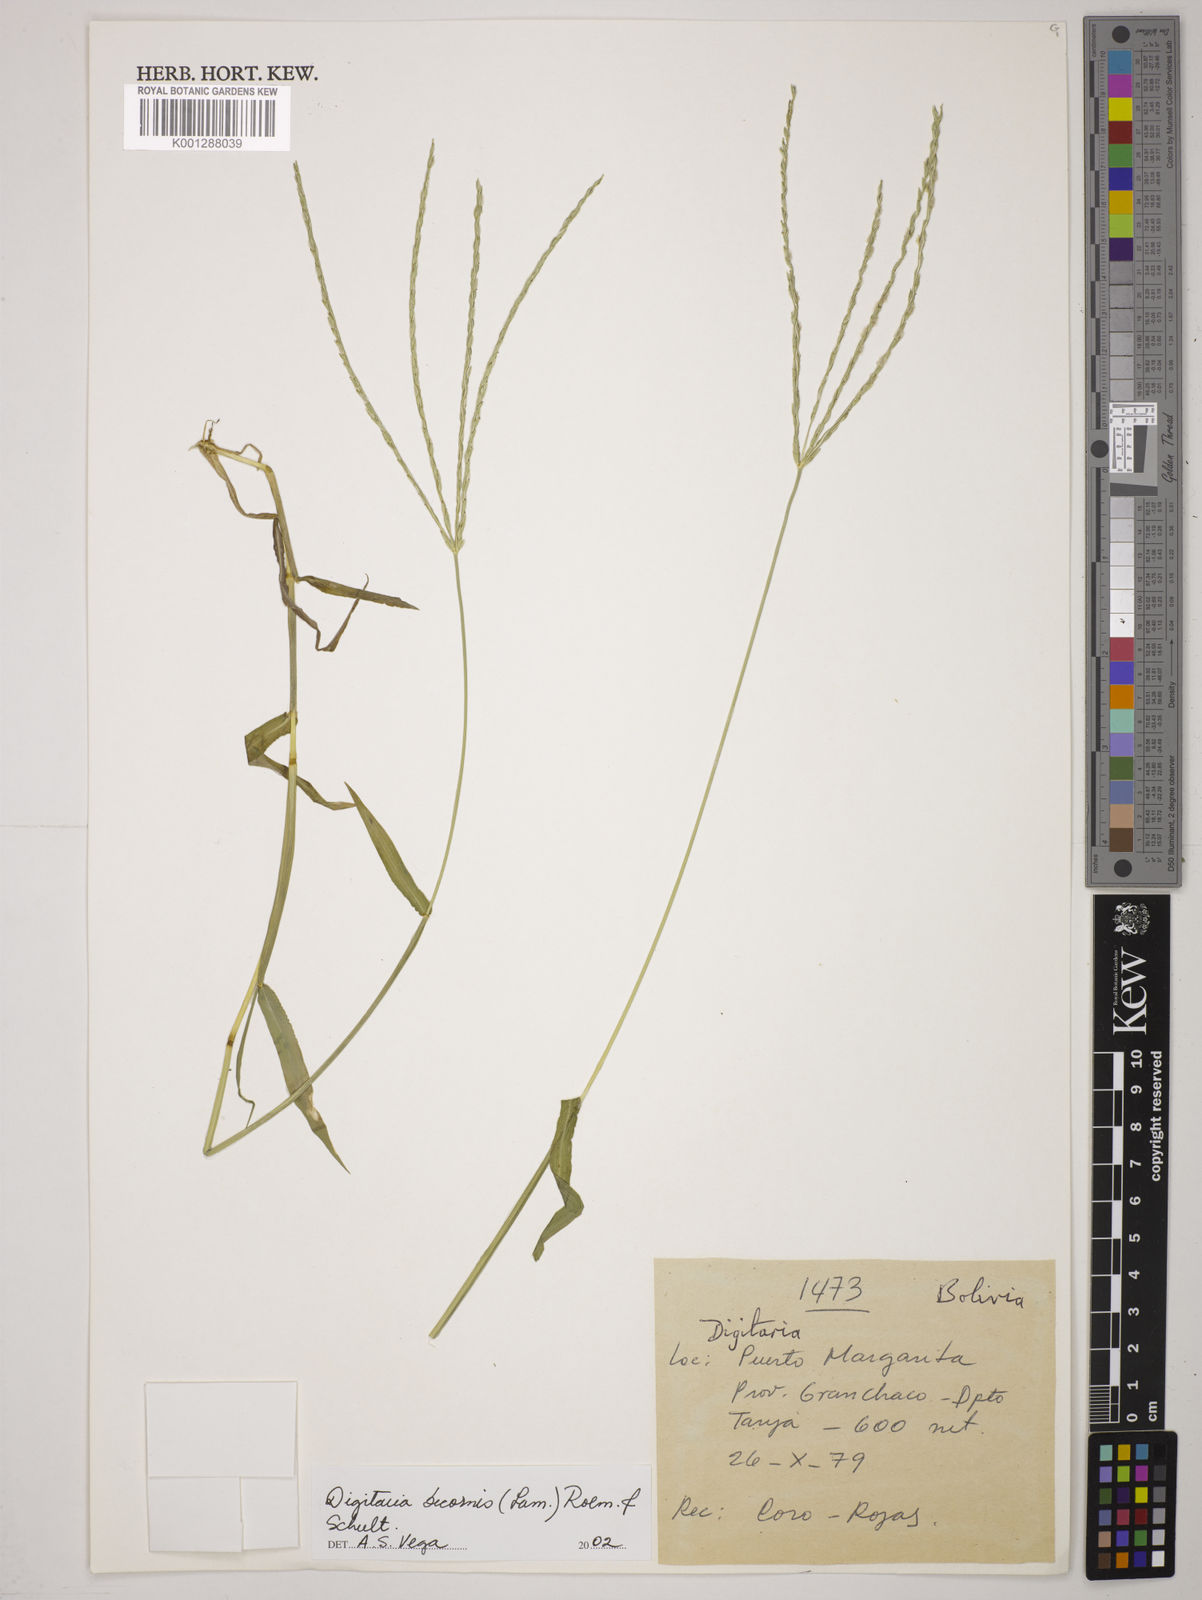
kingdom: Plantae
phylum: Tracheophyta
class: Liliopsida
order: Poales
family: Poaceae
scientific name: Poaceae
